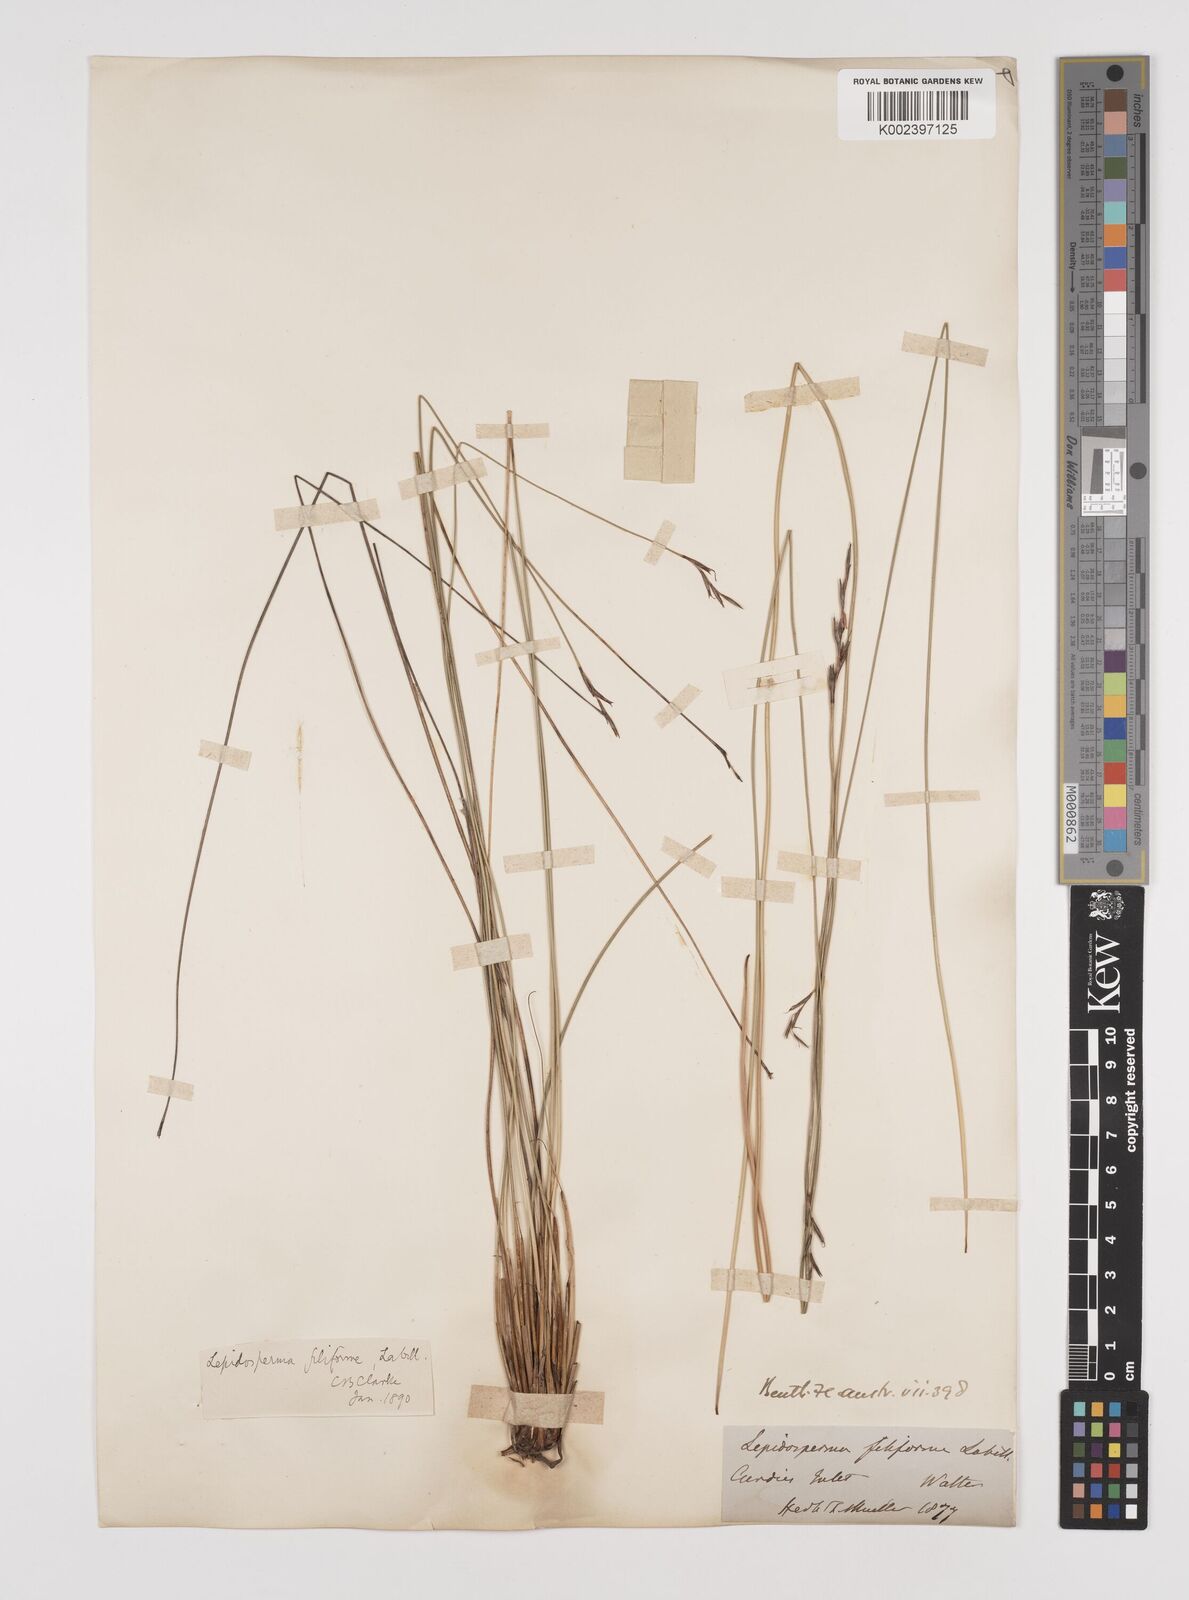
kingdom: Plantae
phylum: Tracheophyta
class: Liliopsida
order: Poales
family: Cyperaceae
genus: Lepidosperma
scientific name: Lepidosperma flexuosum
